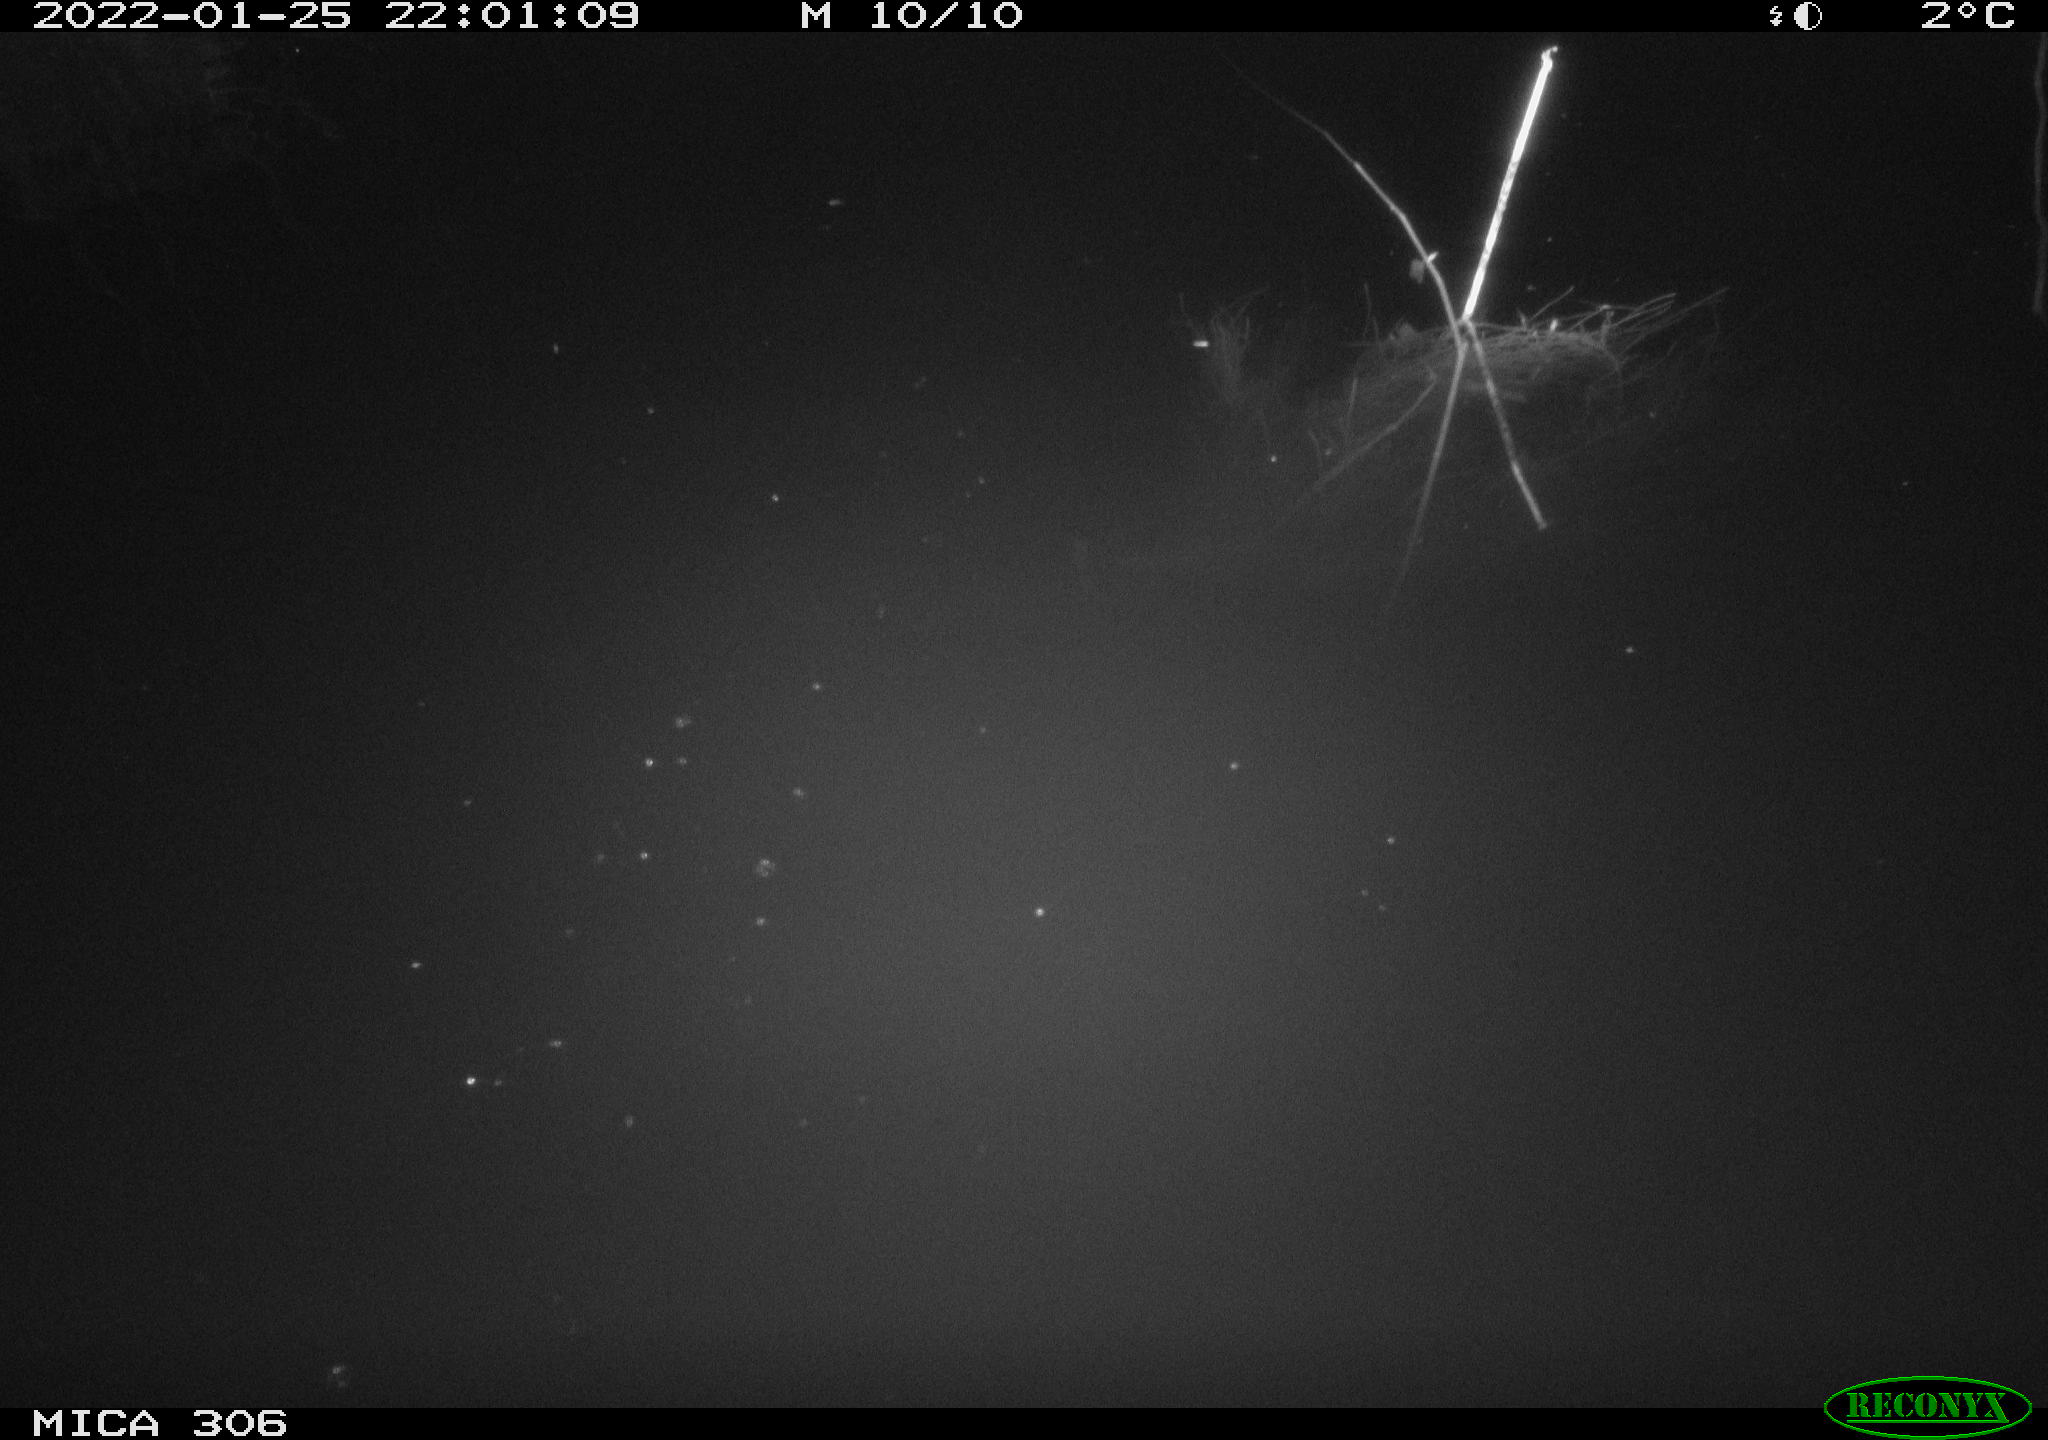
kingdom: Animalia
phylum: Chordata
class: Mammalia
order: Rodentia
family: Cricetidae
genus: Ondatra
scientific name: Ondatra zibethicus
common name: Muskrat
